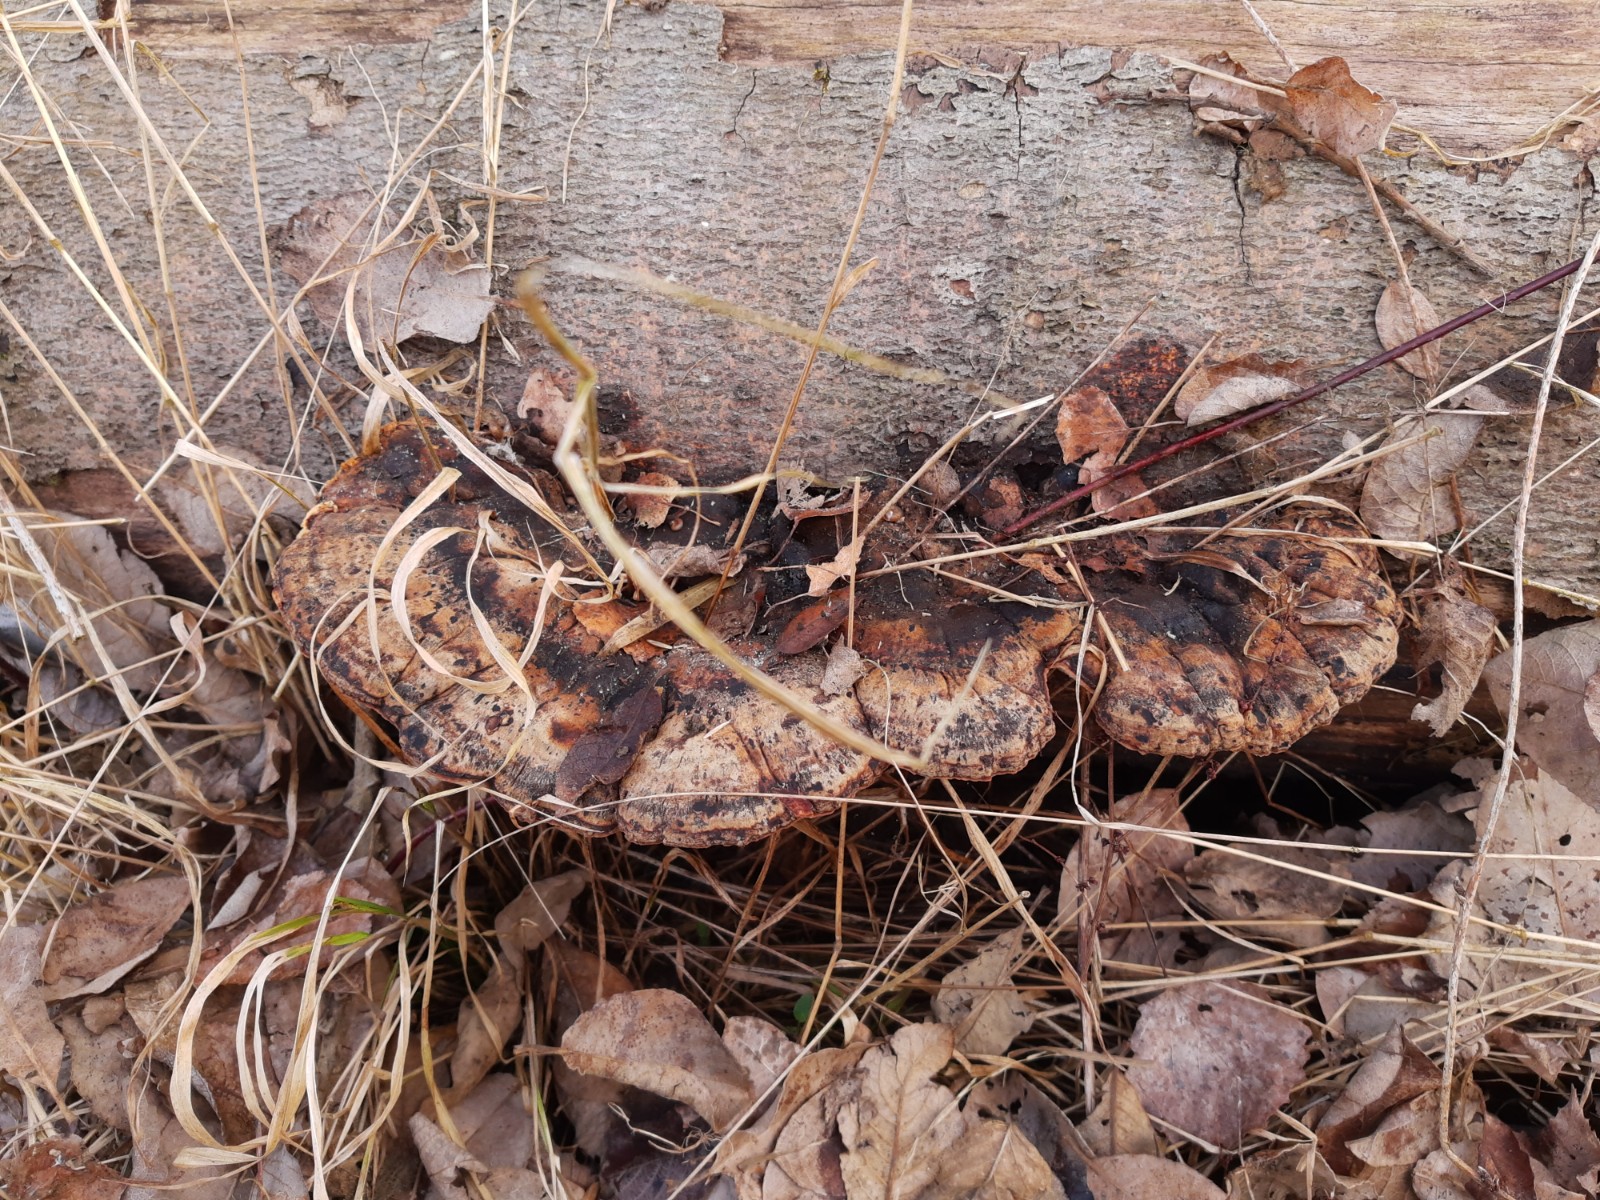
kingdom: Fungi
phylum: Basidiomycota
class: Agaricomycetes
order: Polyporales
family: Ischnodermataceae
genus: Ischnoderma
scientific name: Ischnoderma resinosum
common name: løv-tjæreporesvamp
